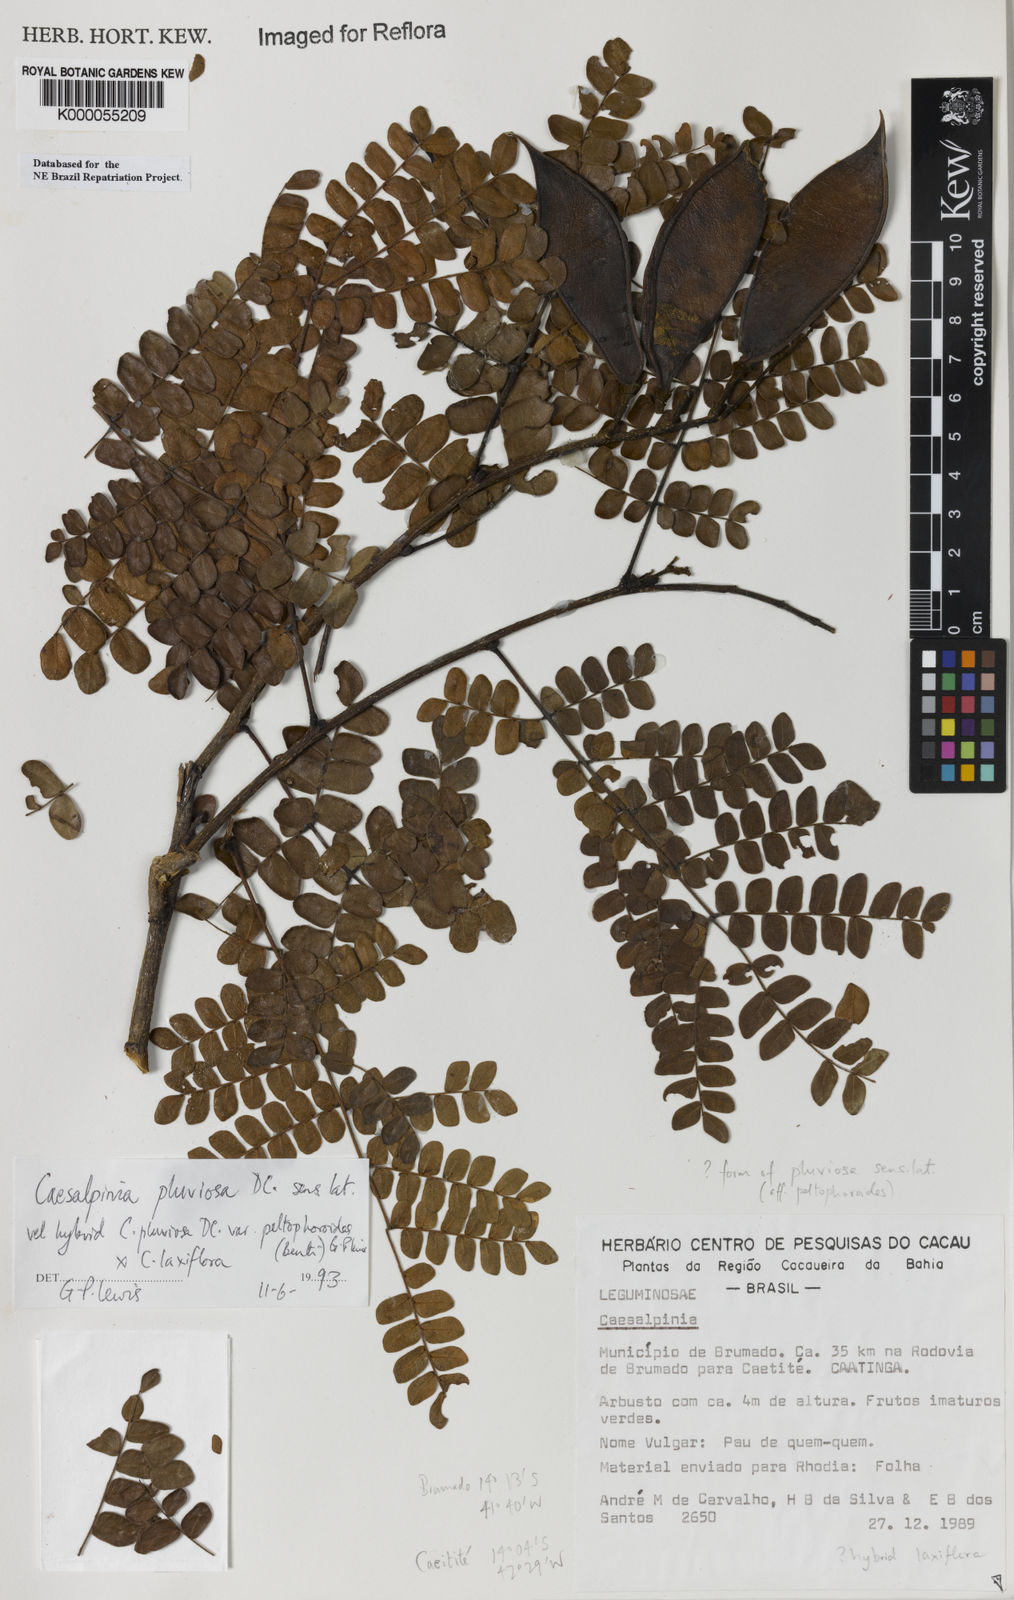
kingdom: Plantae
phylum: Tracheophyta
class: Magnoliopsida
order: Fabales
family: Fabaceae
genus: Cenostigma
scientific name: Cenostigma pluviosum
